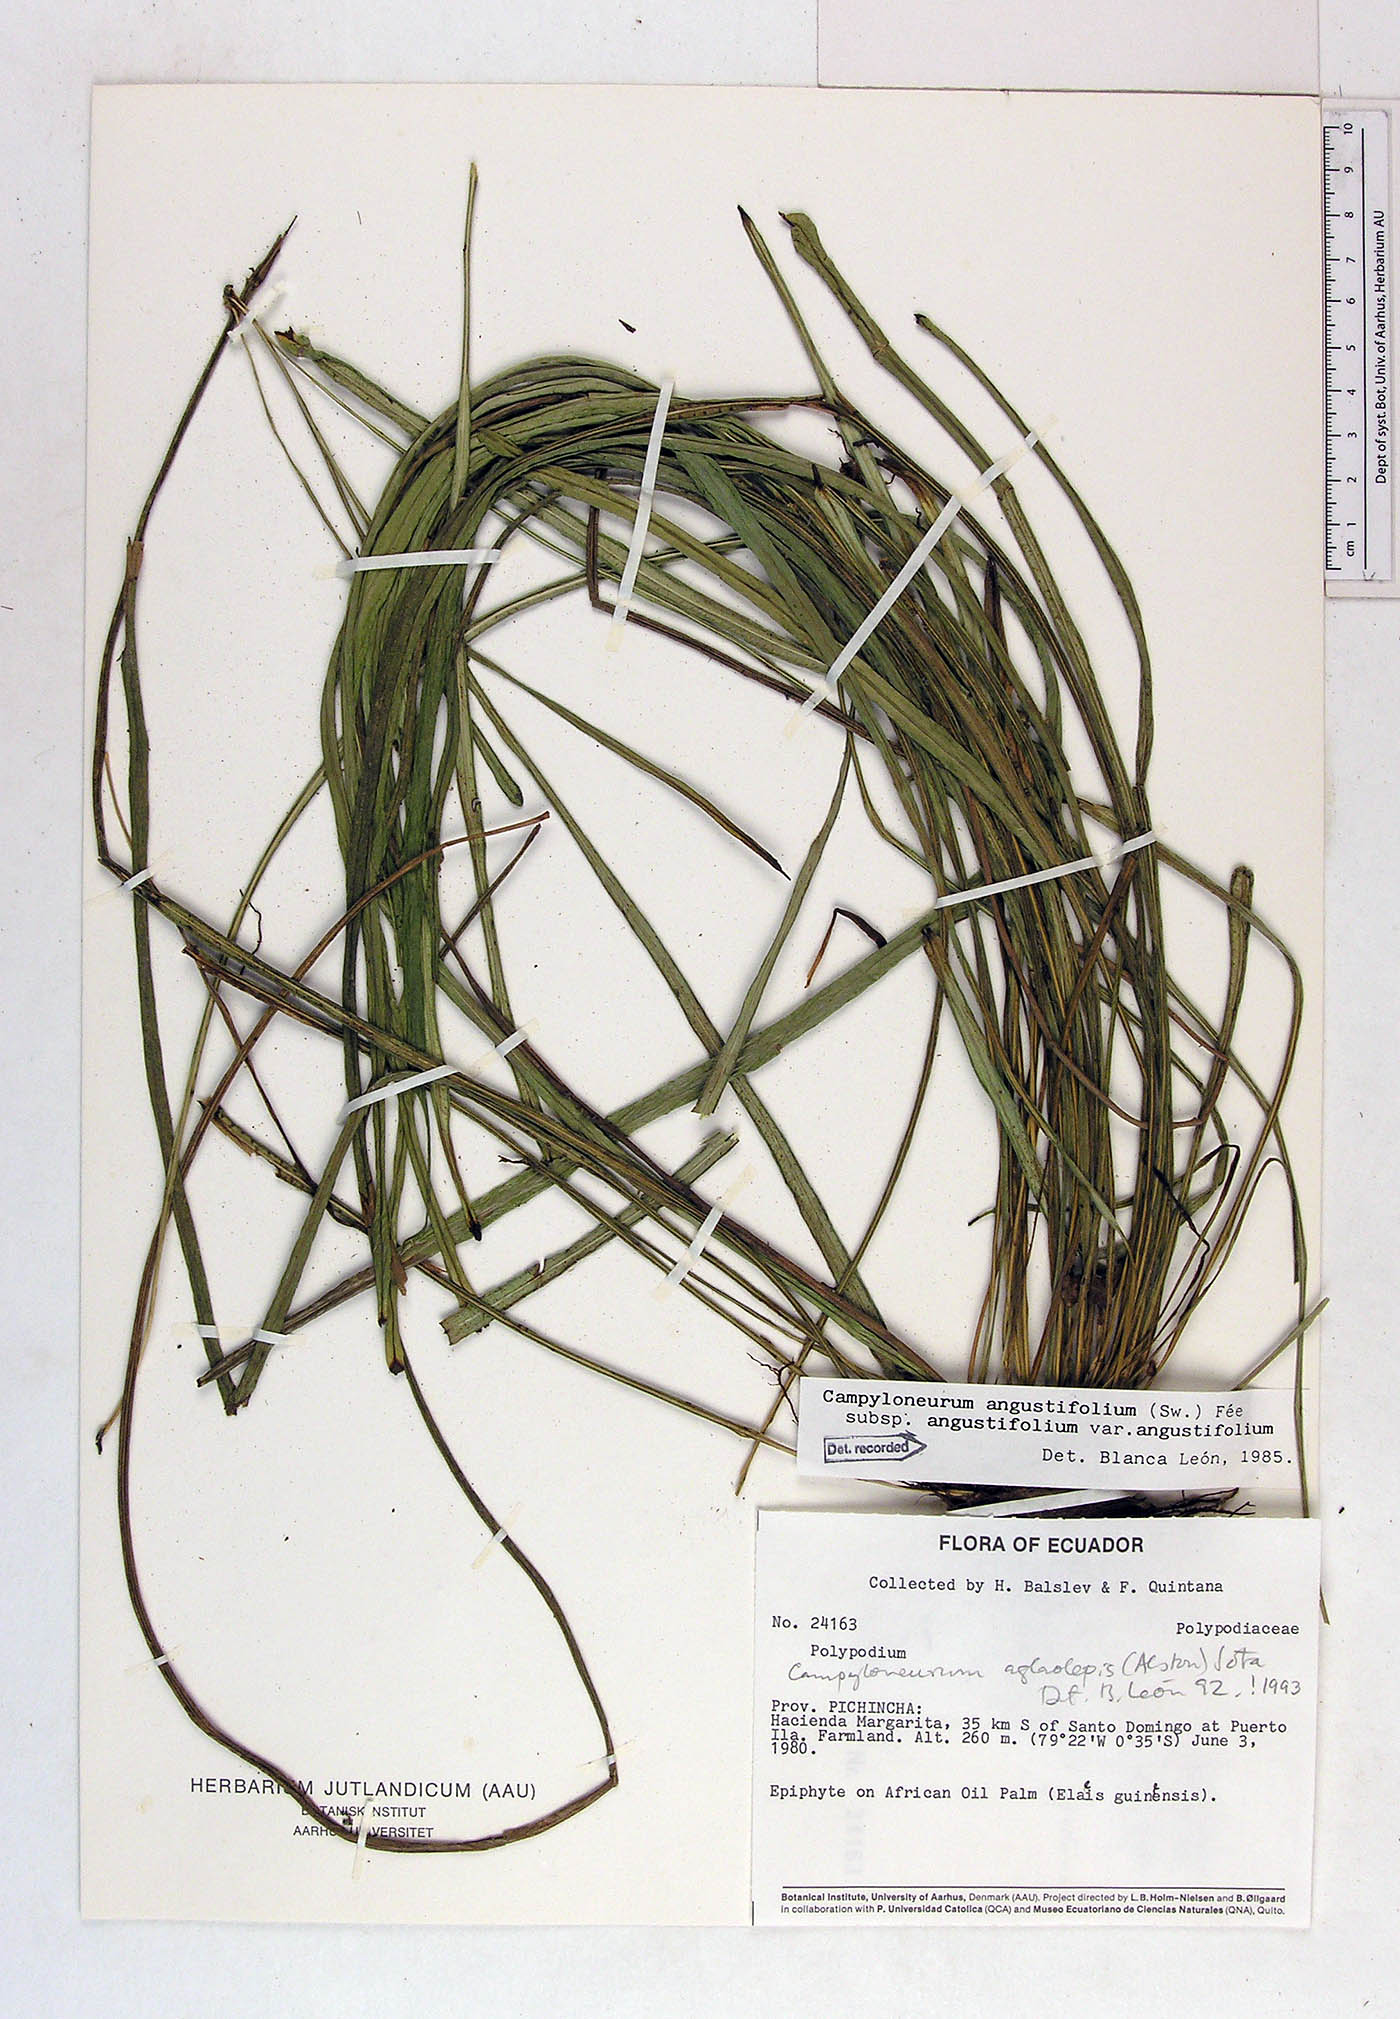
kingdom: Plantae
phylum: Tracheophyta
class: Polypodiopsida
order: Polypodiales
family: Polypodiaceae
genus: Campyloneurum
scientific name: Campyloneurum angustifolium
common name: Narrow-leaf strap fern
